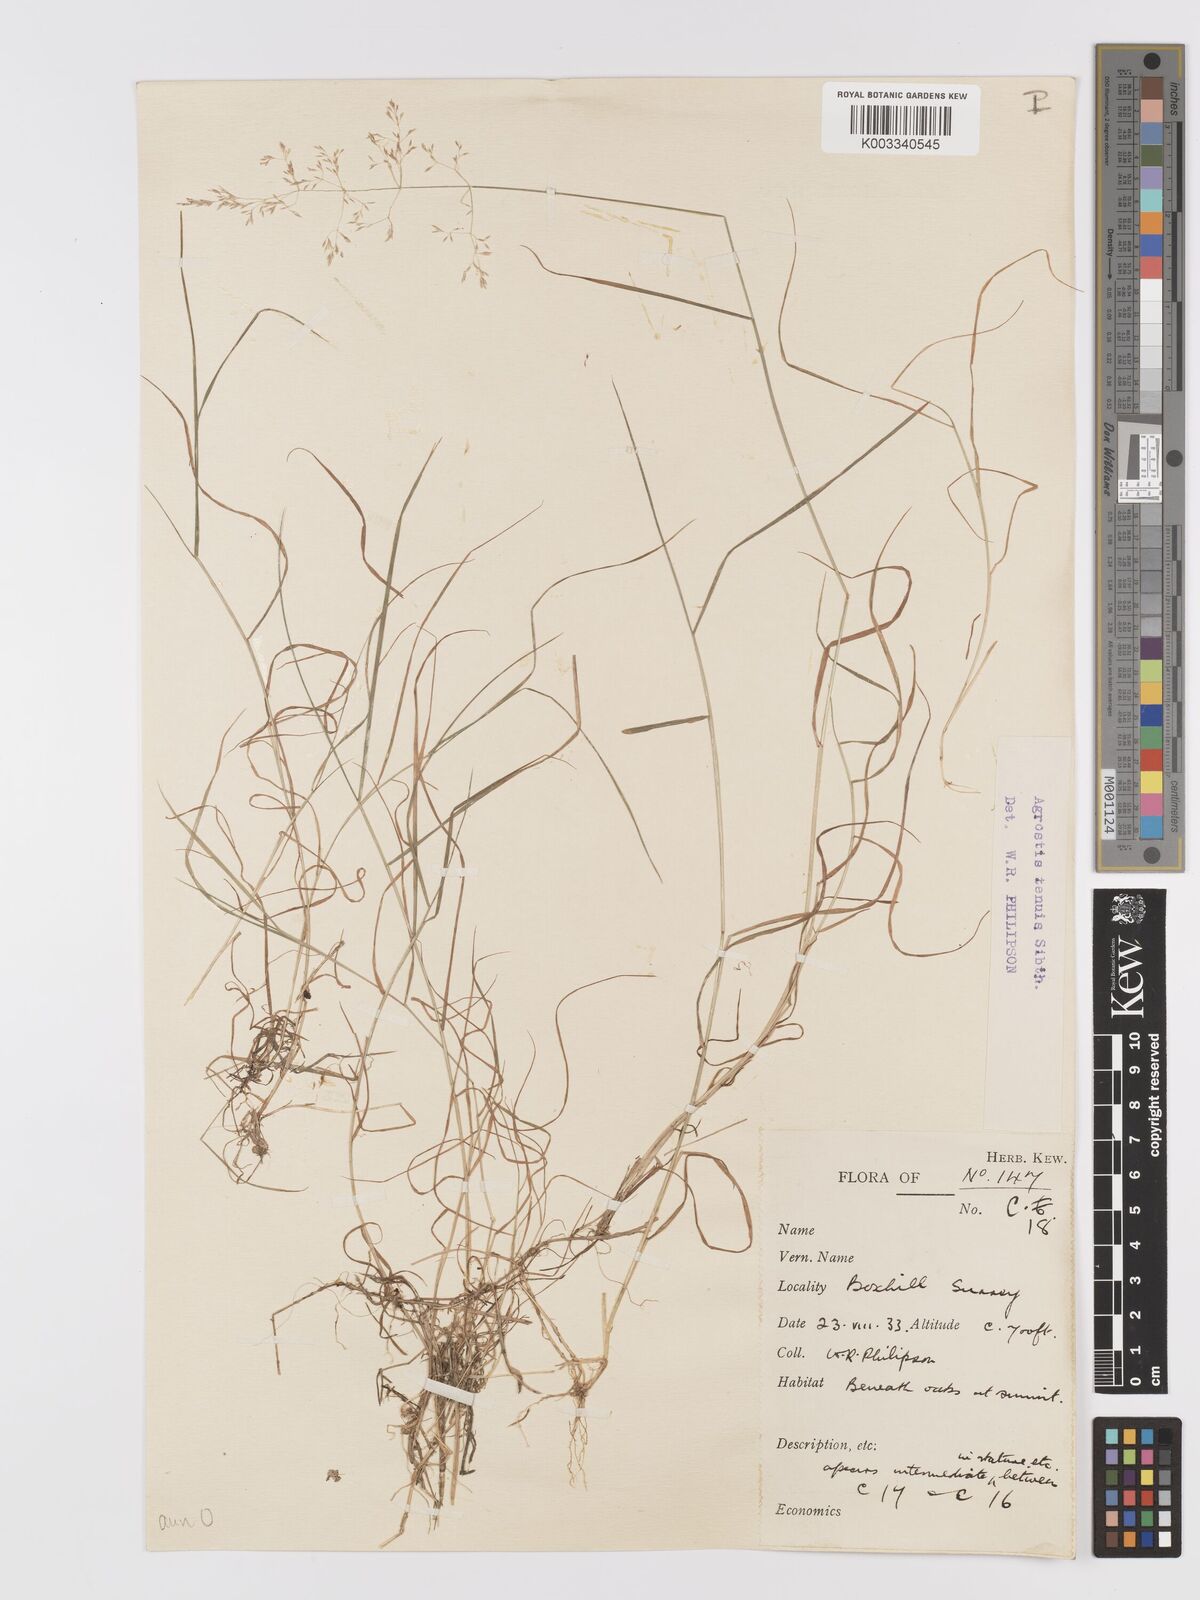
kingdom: Plantae
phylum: Tracheophyta
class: Liliopsida
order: Poales
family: Poaceae
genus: Agrostis
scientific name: Agrostis capillaris
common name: Colonial bentgrass
